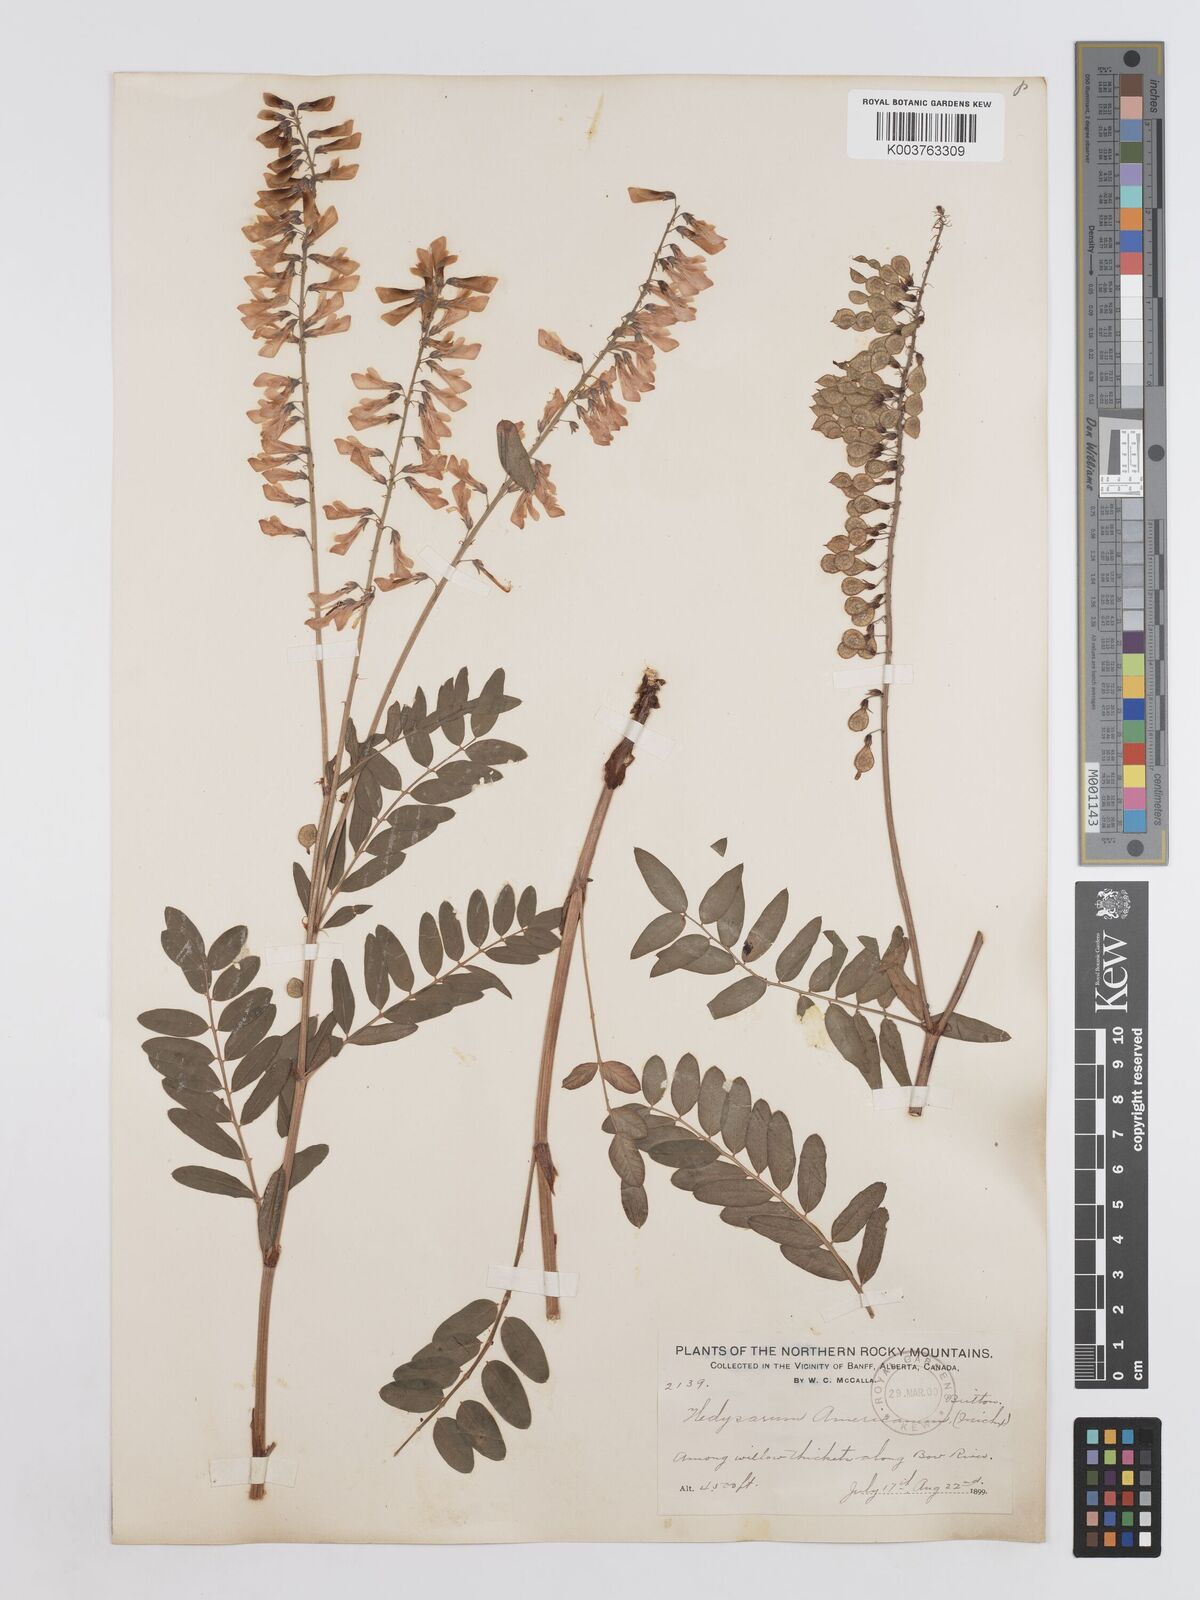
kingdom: Plantae
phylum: Tracheophyta
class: Magnoliopsida
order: Fabales
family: Fabaceae
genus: Hedysarum
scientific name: Hedysarum alpinum
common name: Alpine sweet-vetch
